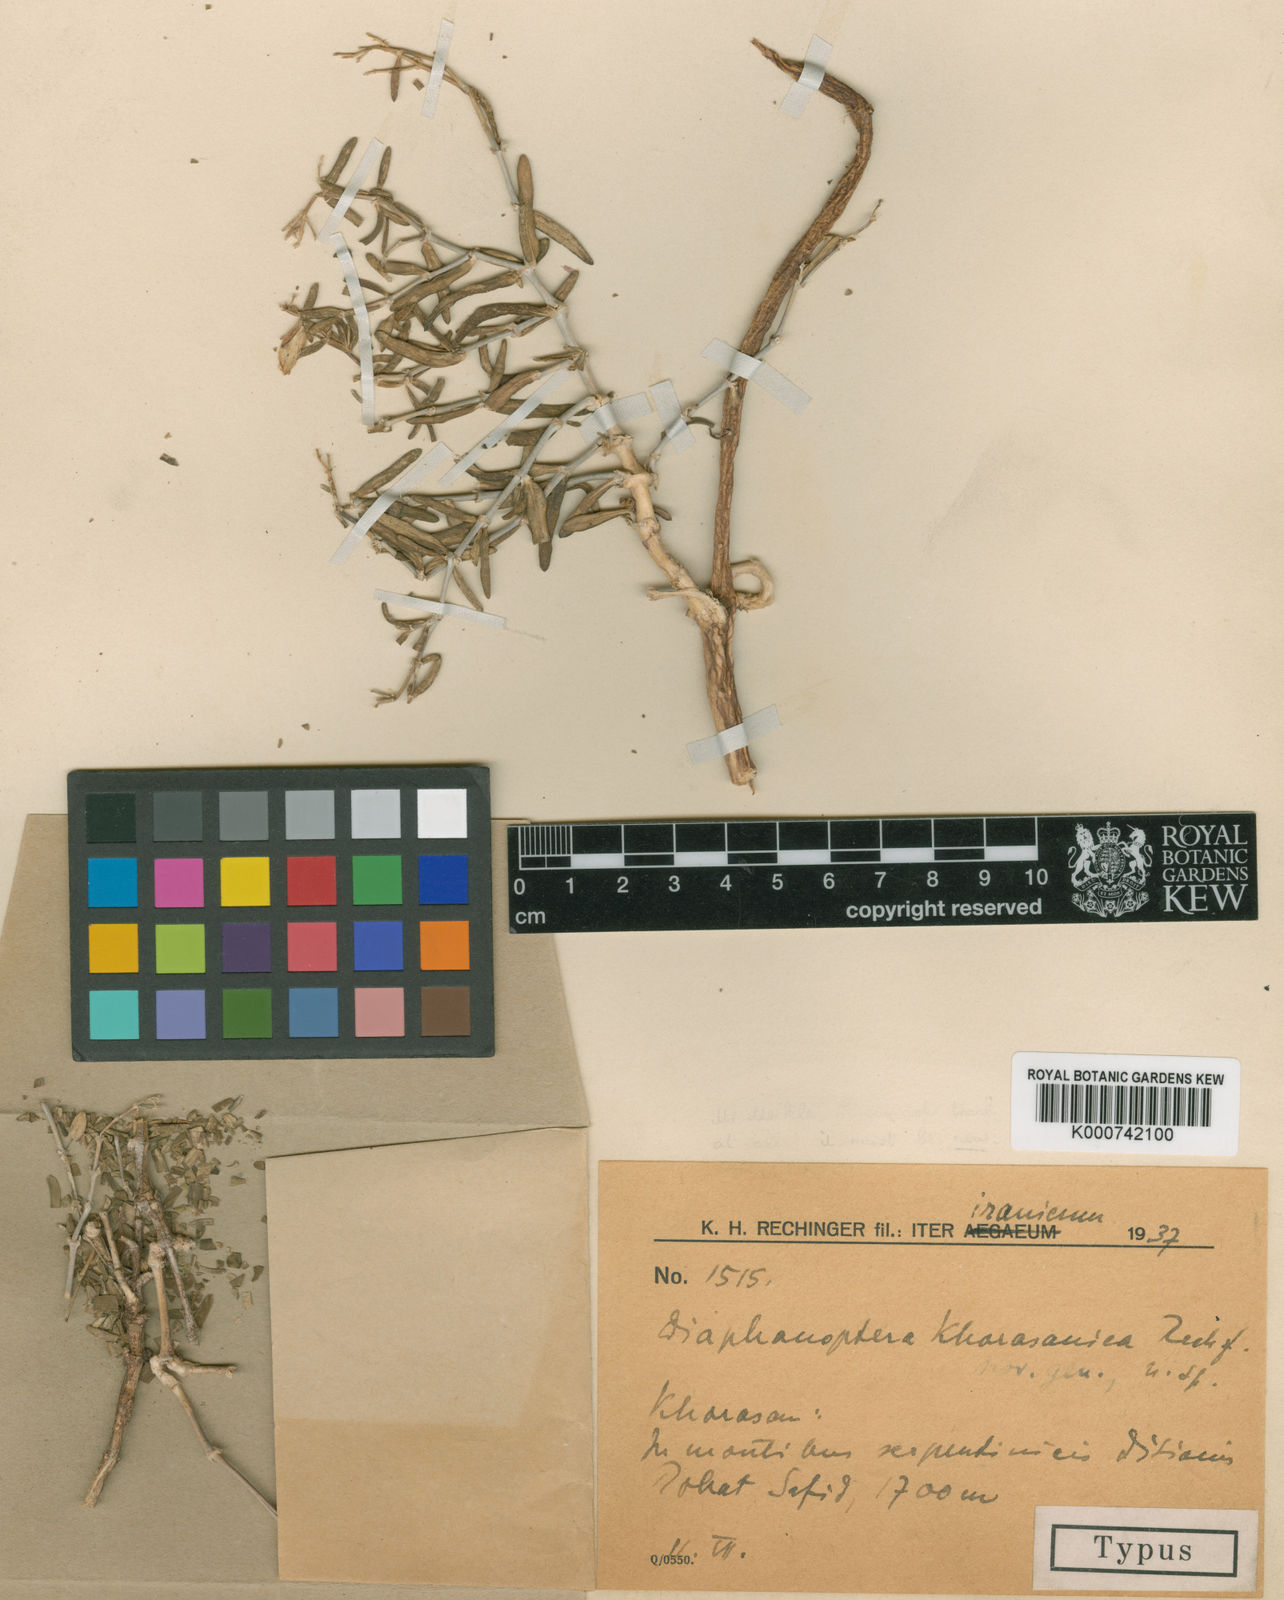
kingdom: Plantae
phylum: Tracheophyta
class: Magnoliopsida
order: Caryophyllales
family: Caryophyllaceae
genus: Acanthophyllum
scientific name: Acanthophyllum
